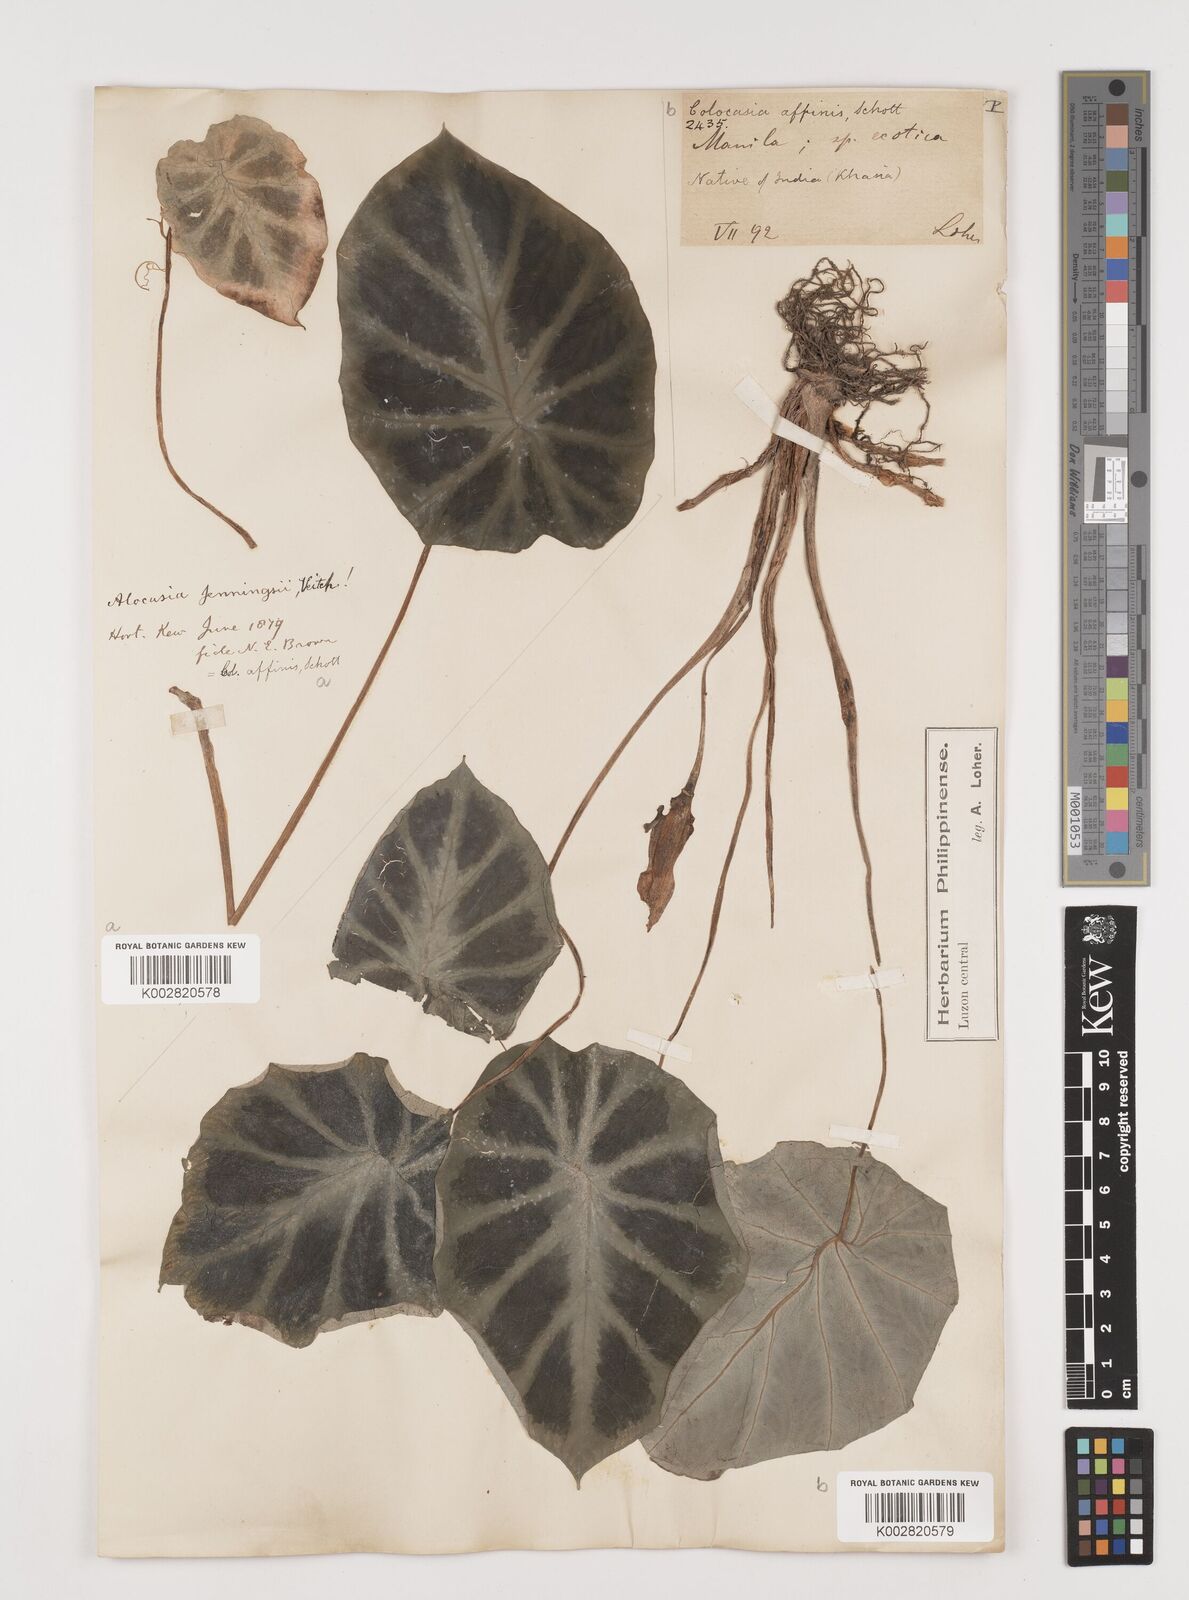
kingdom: Plantae
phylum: Tracheophyta
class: Liliopsida
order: Alismatales
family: Araceae
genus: Colocasia
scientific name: Colocasia affinis
